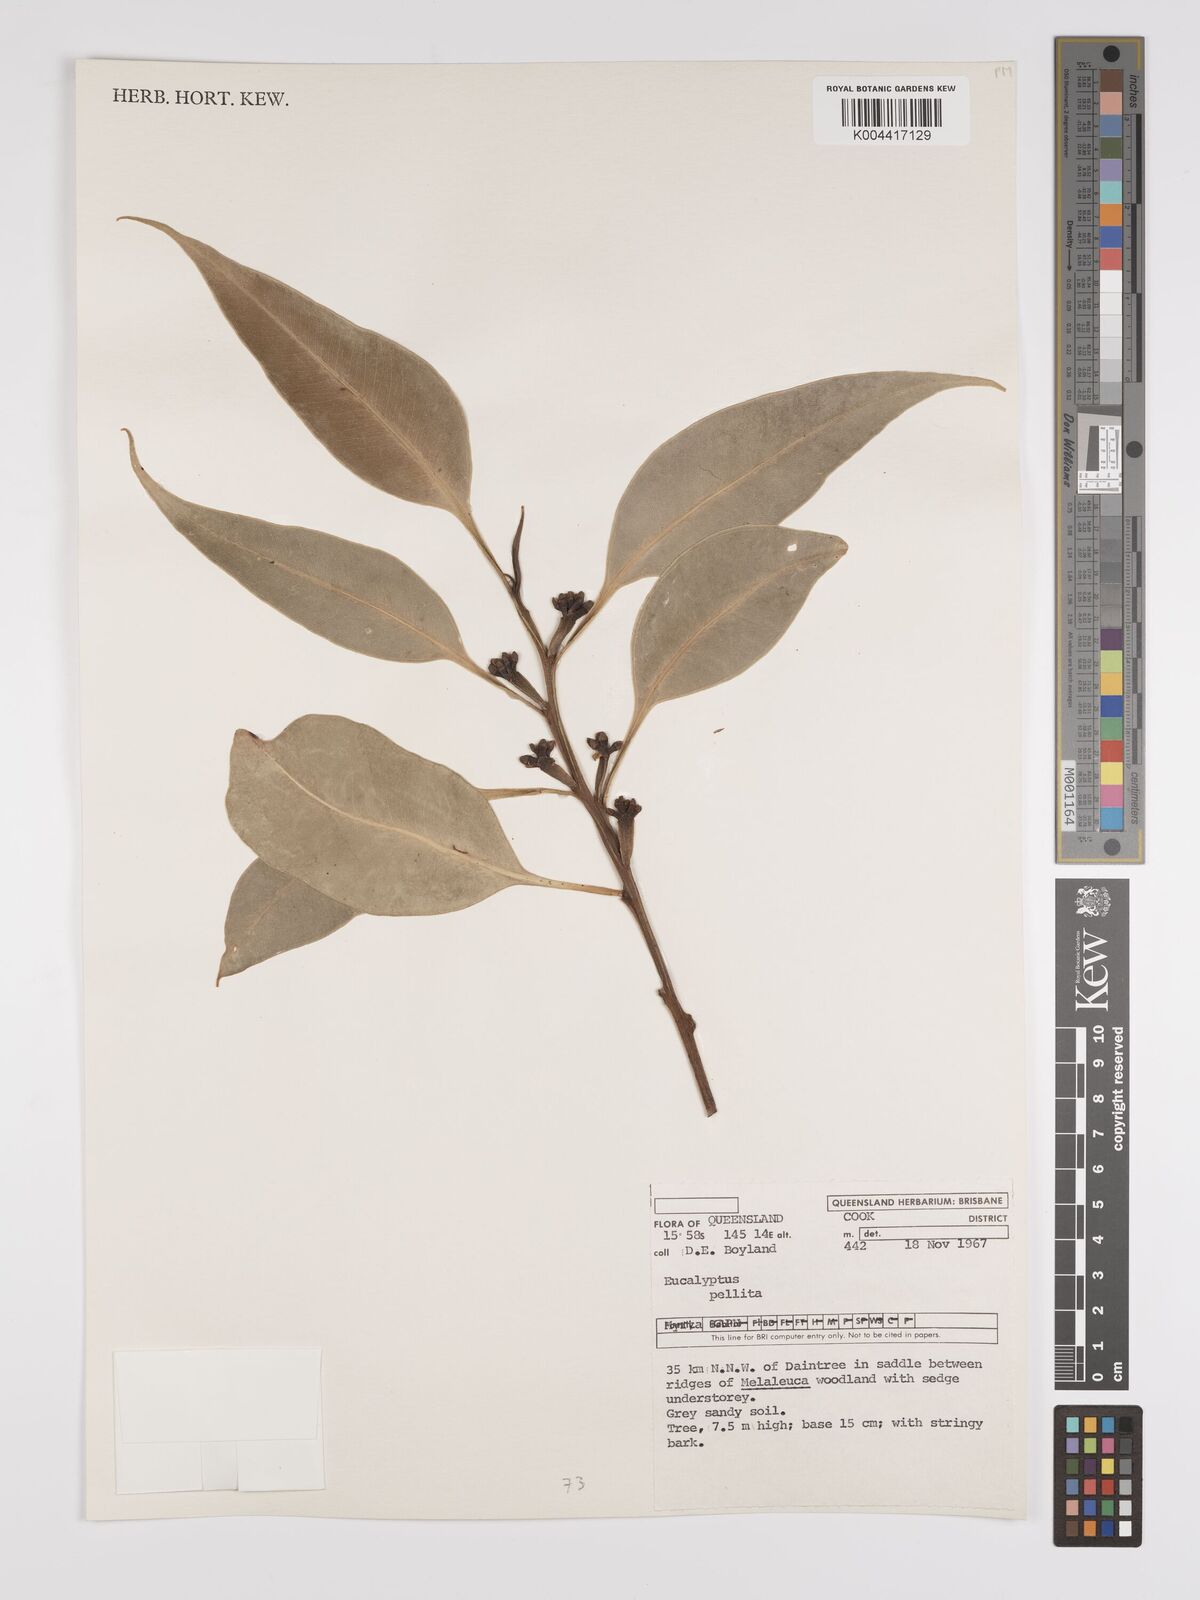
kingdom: Plantae
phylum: Tracheophyta
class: Magnoliopsida
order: Myrtales
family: Myrtaceae
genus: Eucalyptus
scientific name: Eucalyptus pellita
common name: Large-fruited-red-mahogany
